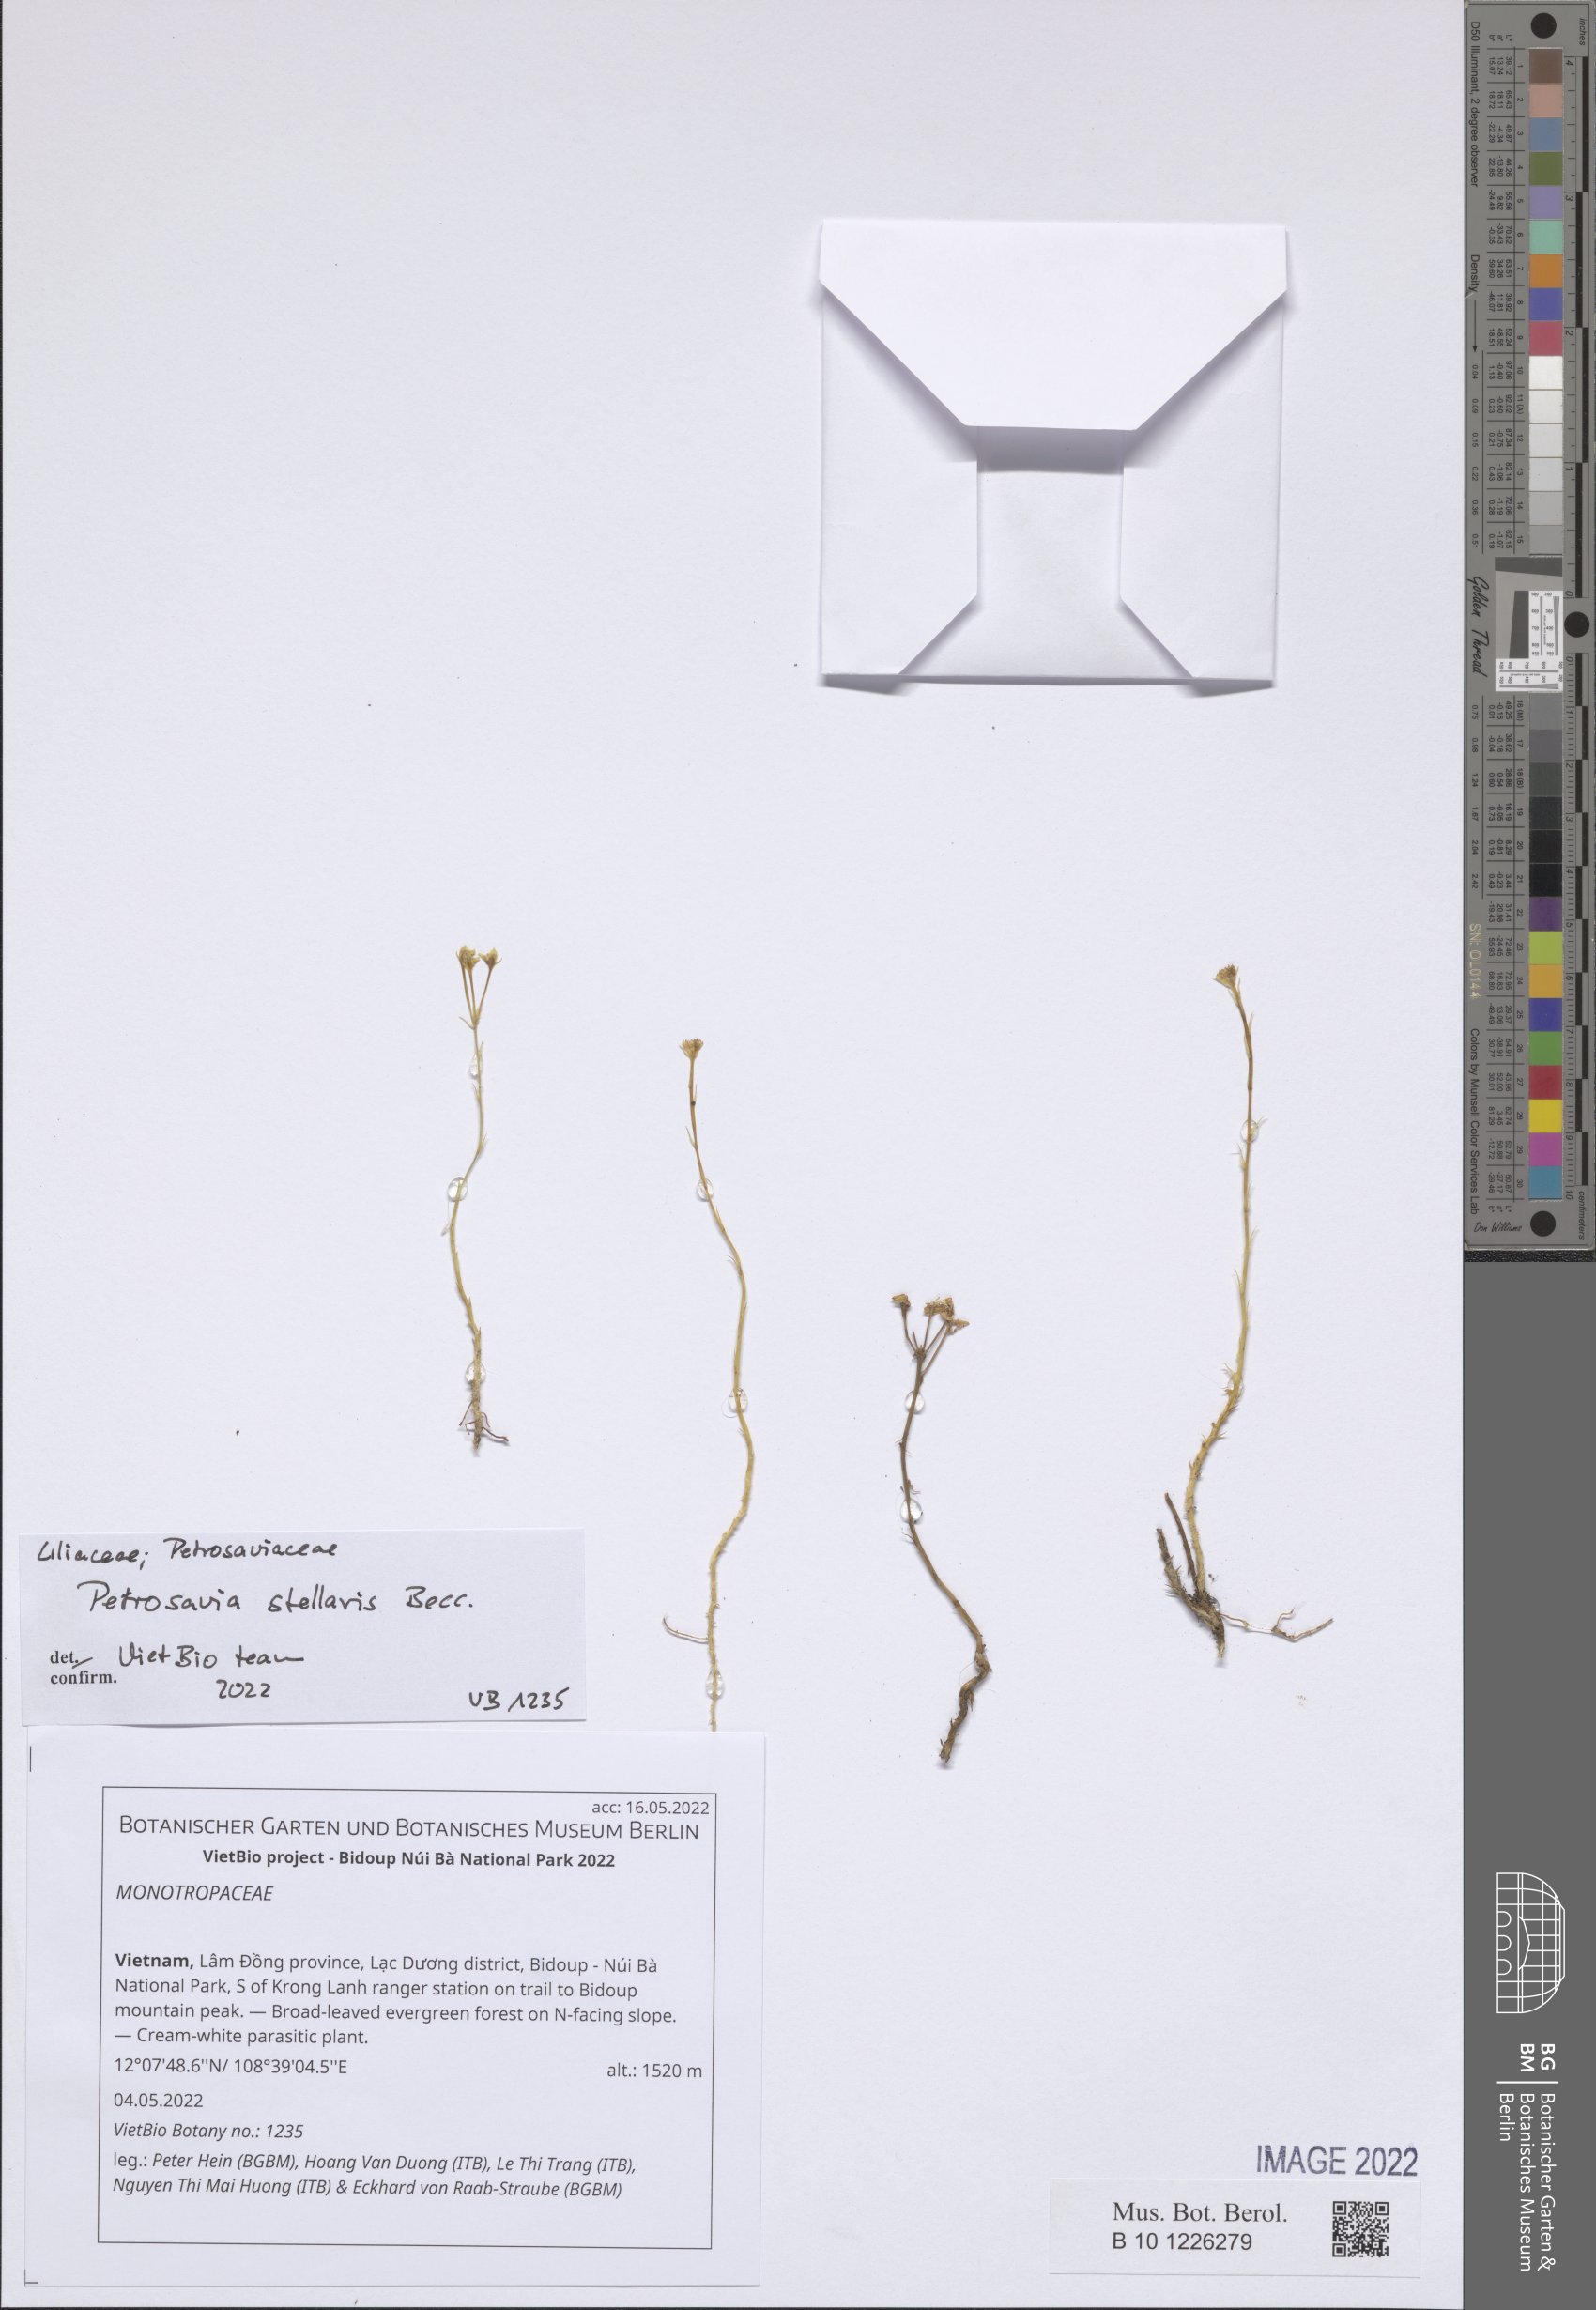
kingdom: Plantae
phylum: Tracheophyta
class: Magnoliopsida
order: Ericales
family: Ericaceae
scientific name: Ericaceae
